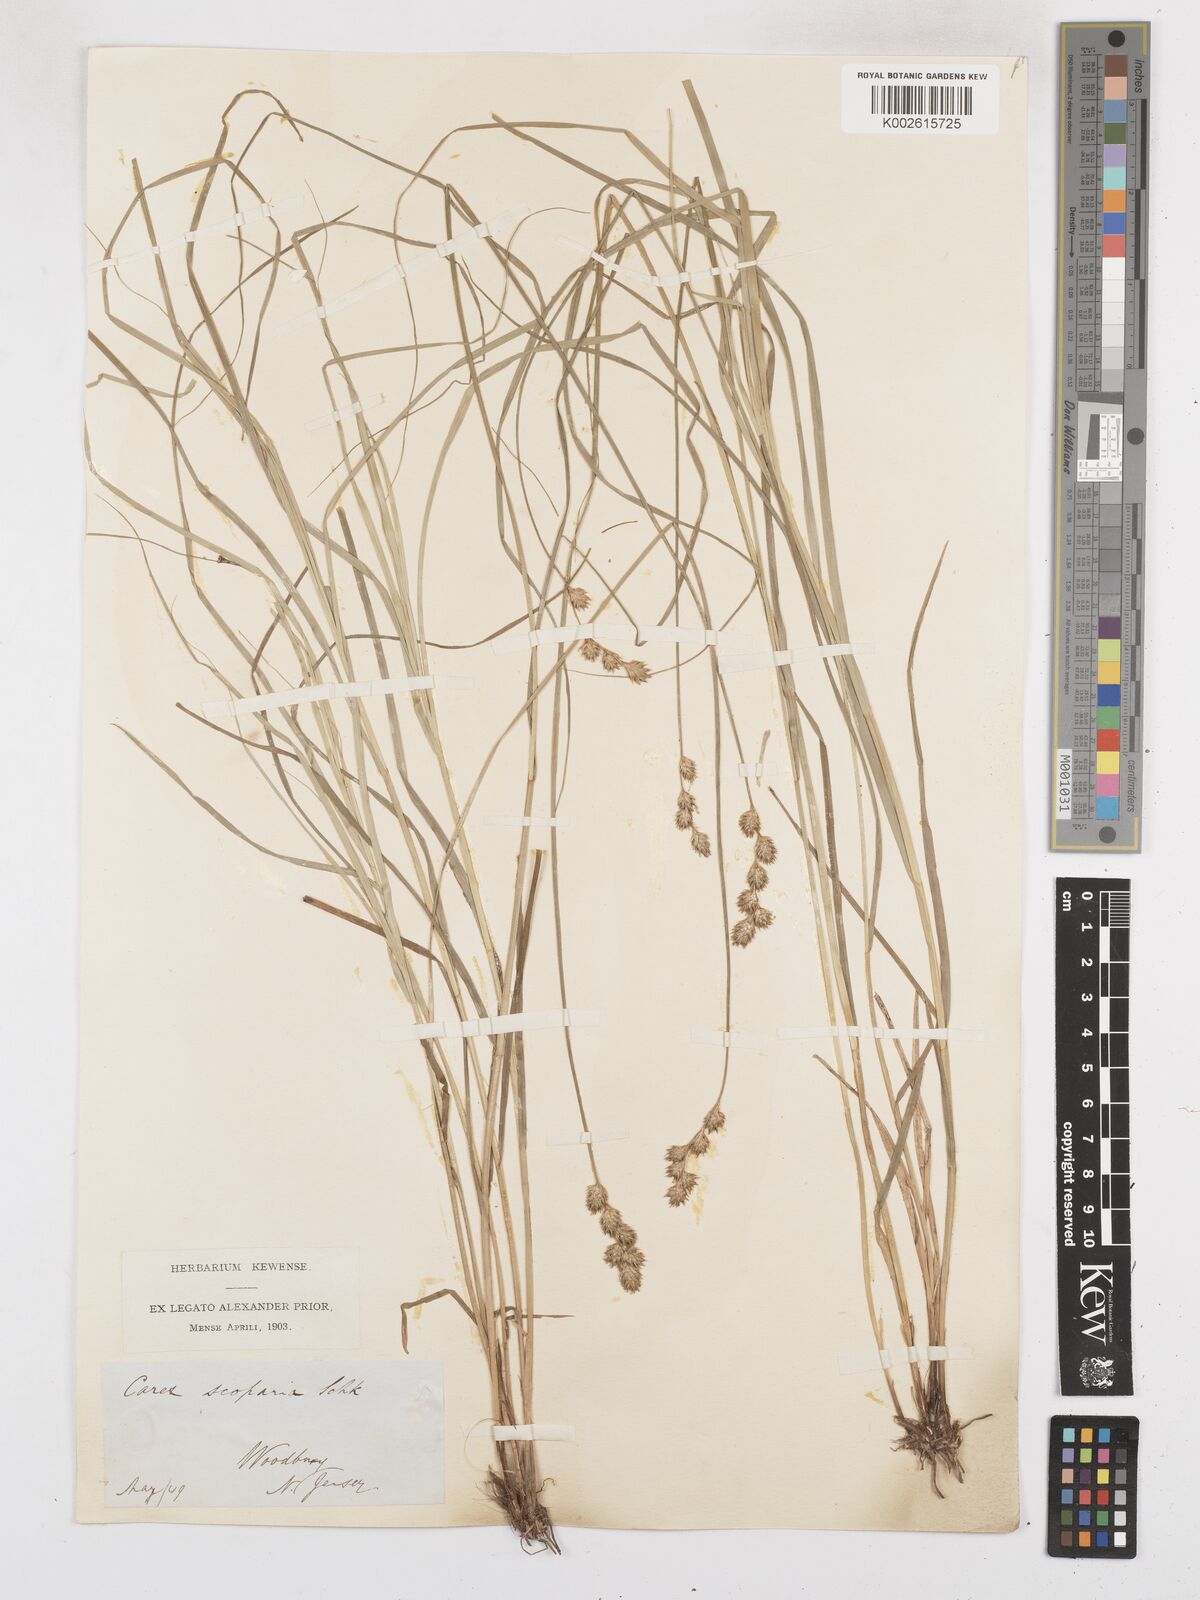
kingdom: Plantae
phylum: Tracheophyta
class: Liliopsida
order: Poales
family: Cyperaceae
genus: Carex
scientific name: Carex leporina
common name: Oval sedge
